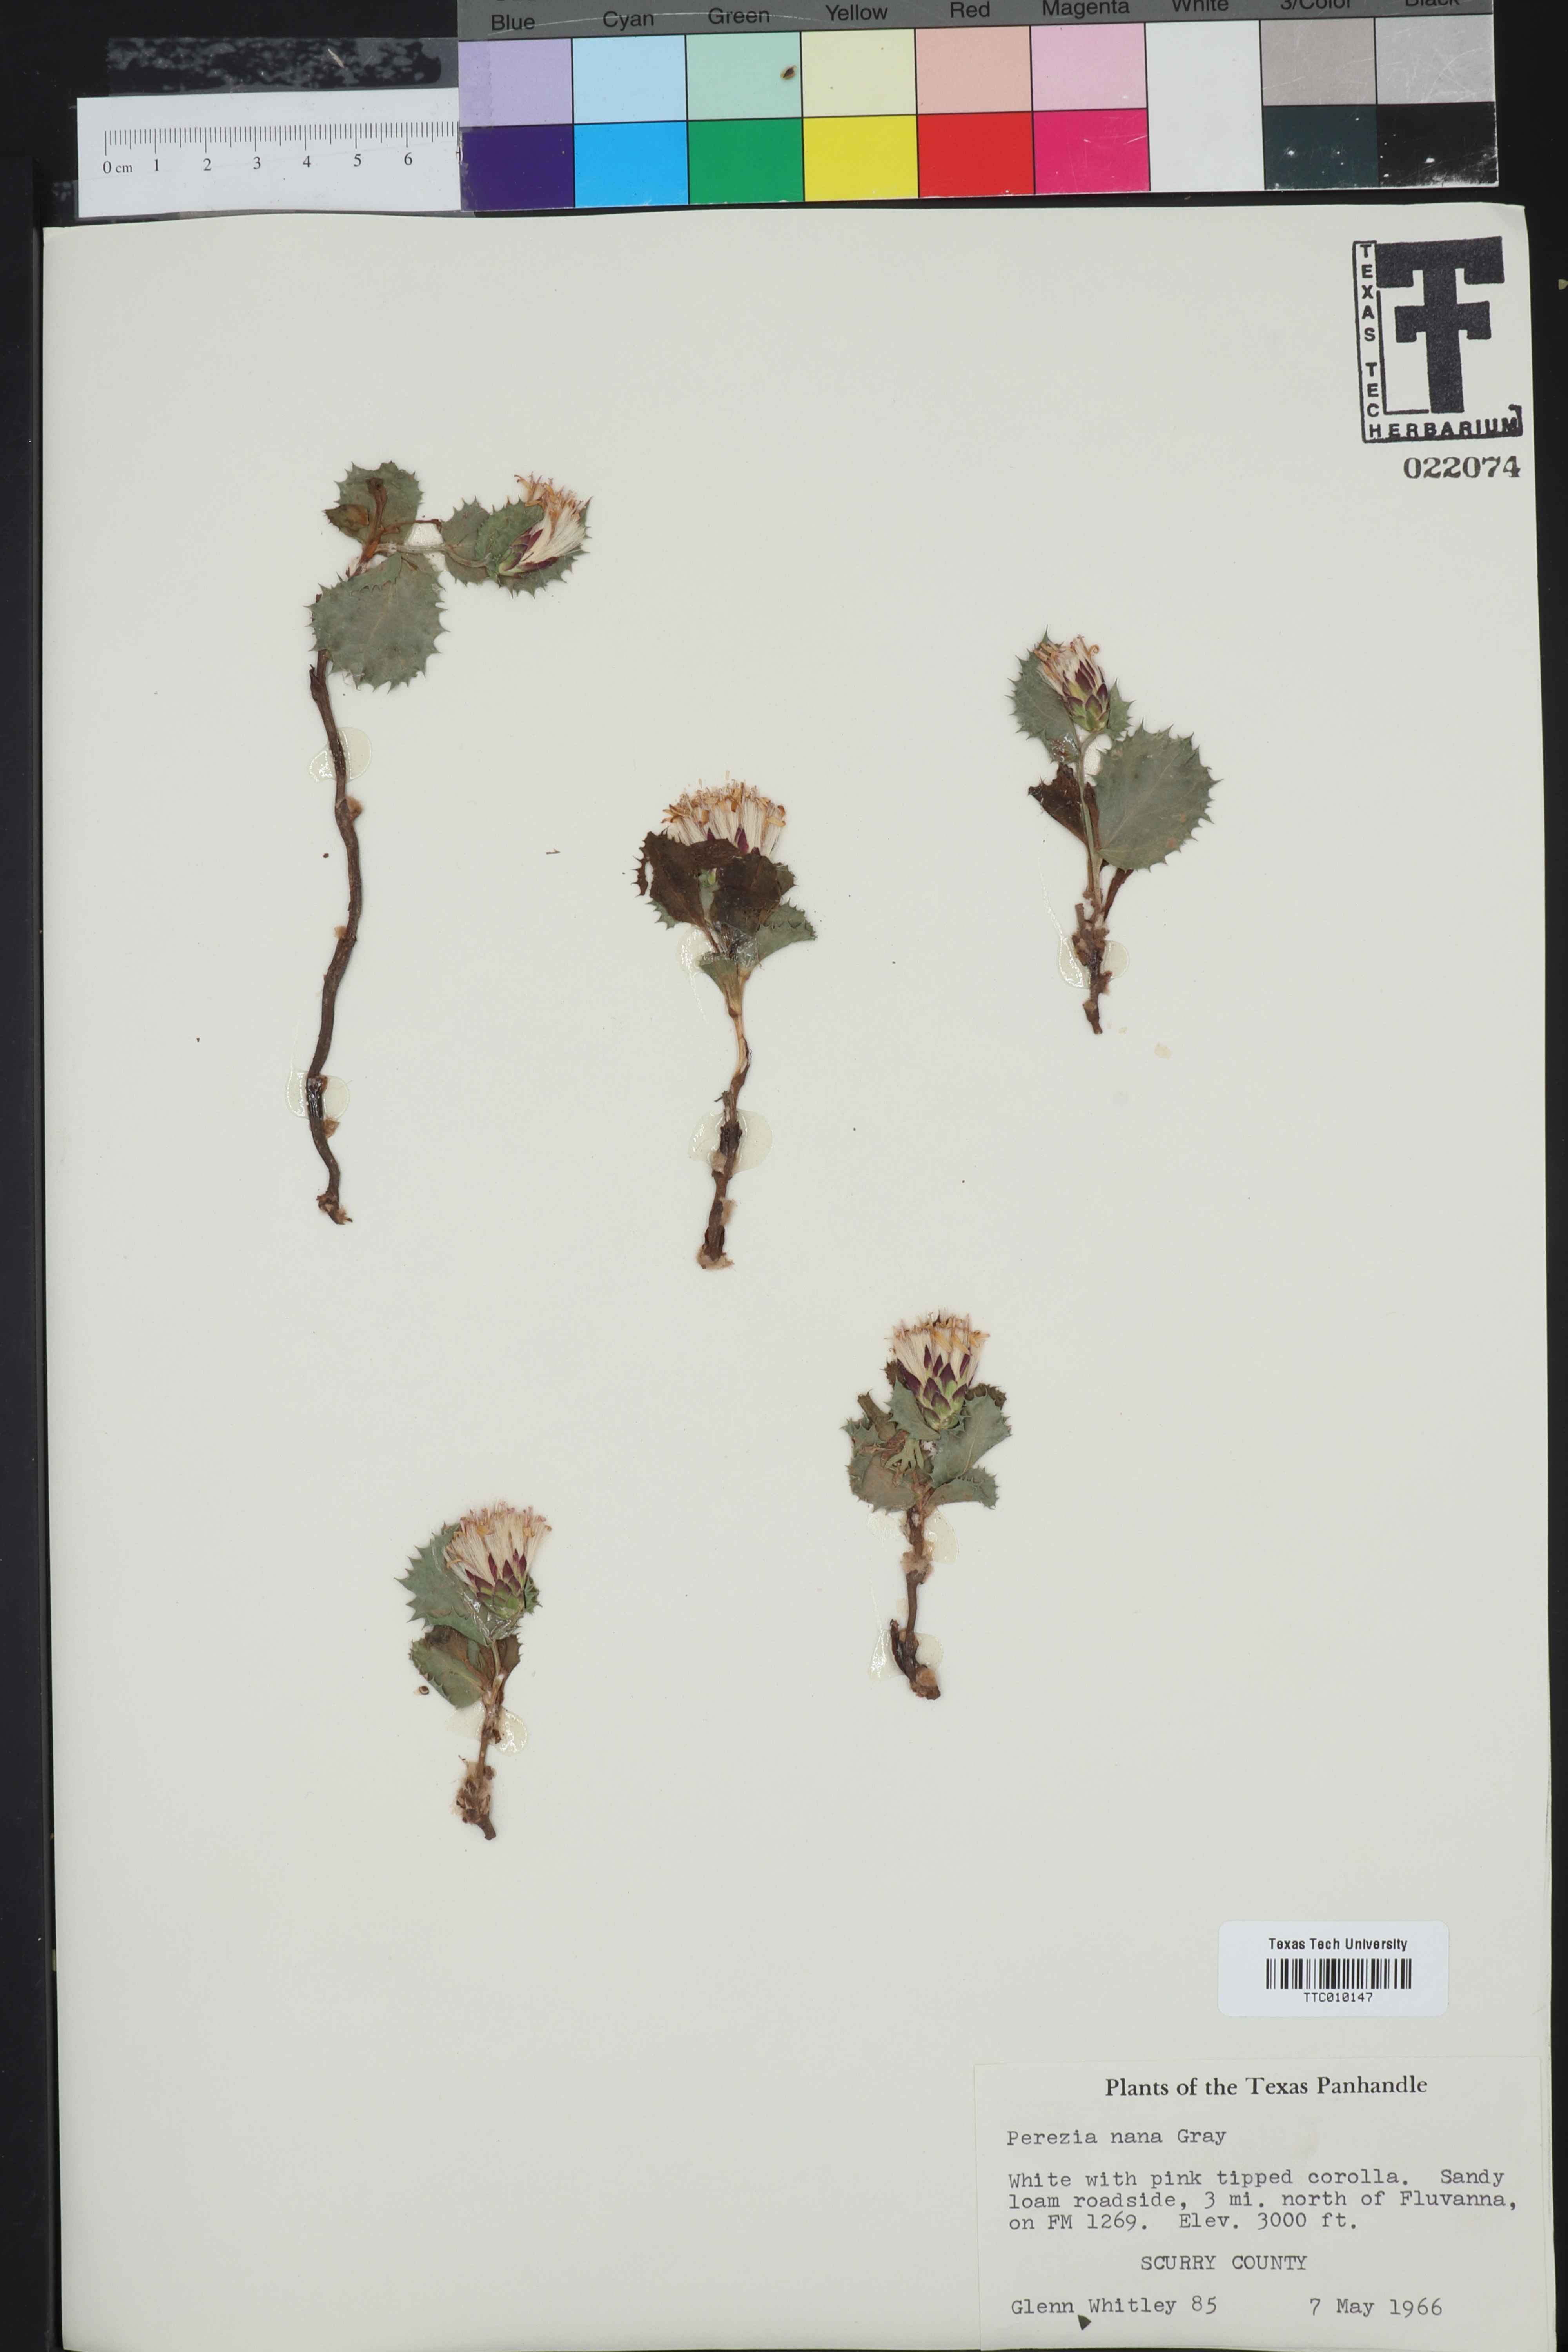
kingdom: Plantae
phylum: Tracheophyta
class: Magnoliopsida
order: Asterales
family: Asteraceae
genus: Acourtia
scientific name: Acourtia nana
